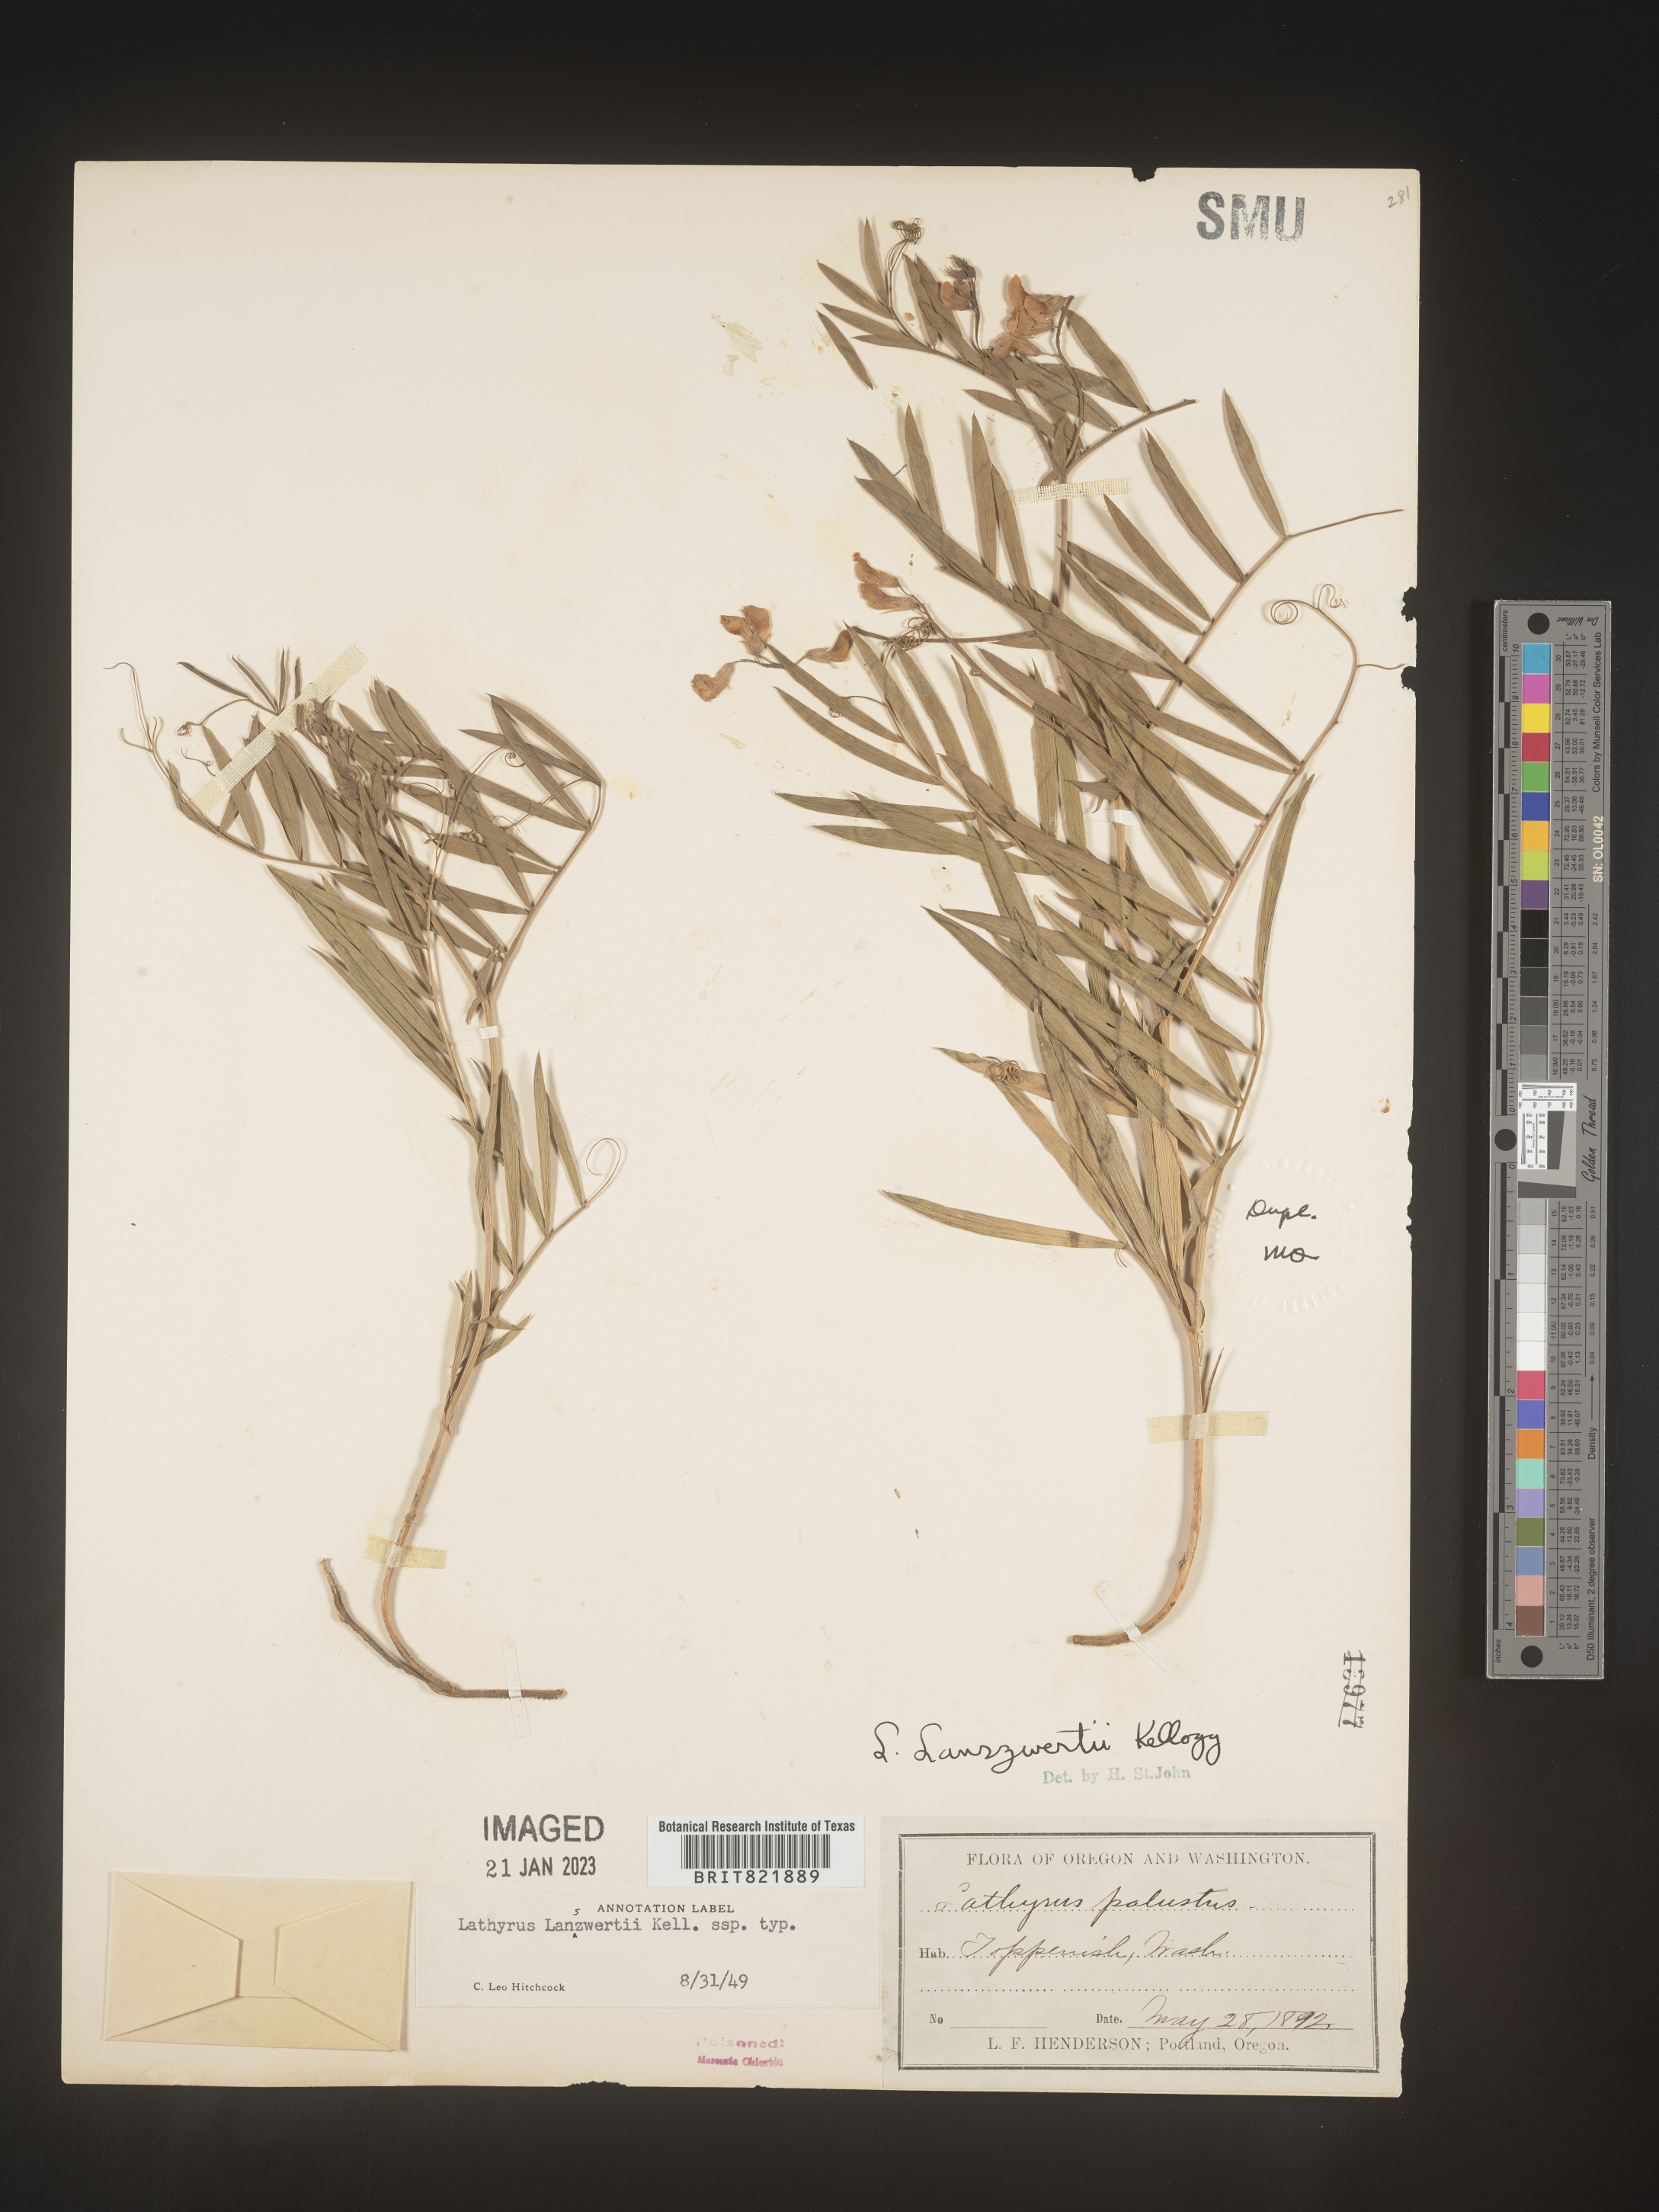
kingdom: Plantae
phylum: Tracheophyta
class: Magnoliopsida
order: Fabales
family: Fabaceae
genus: Lathyrus
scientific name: Lathyrus
